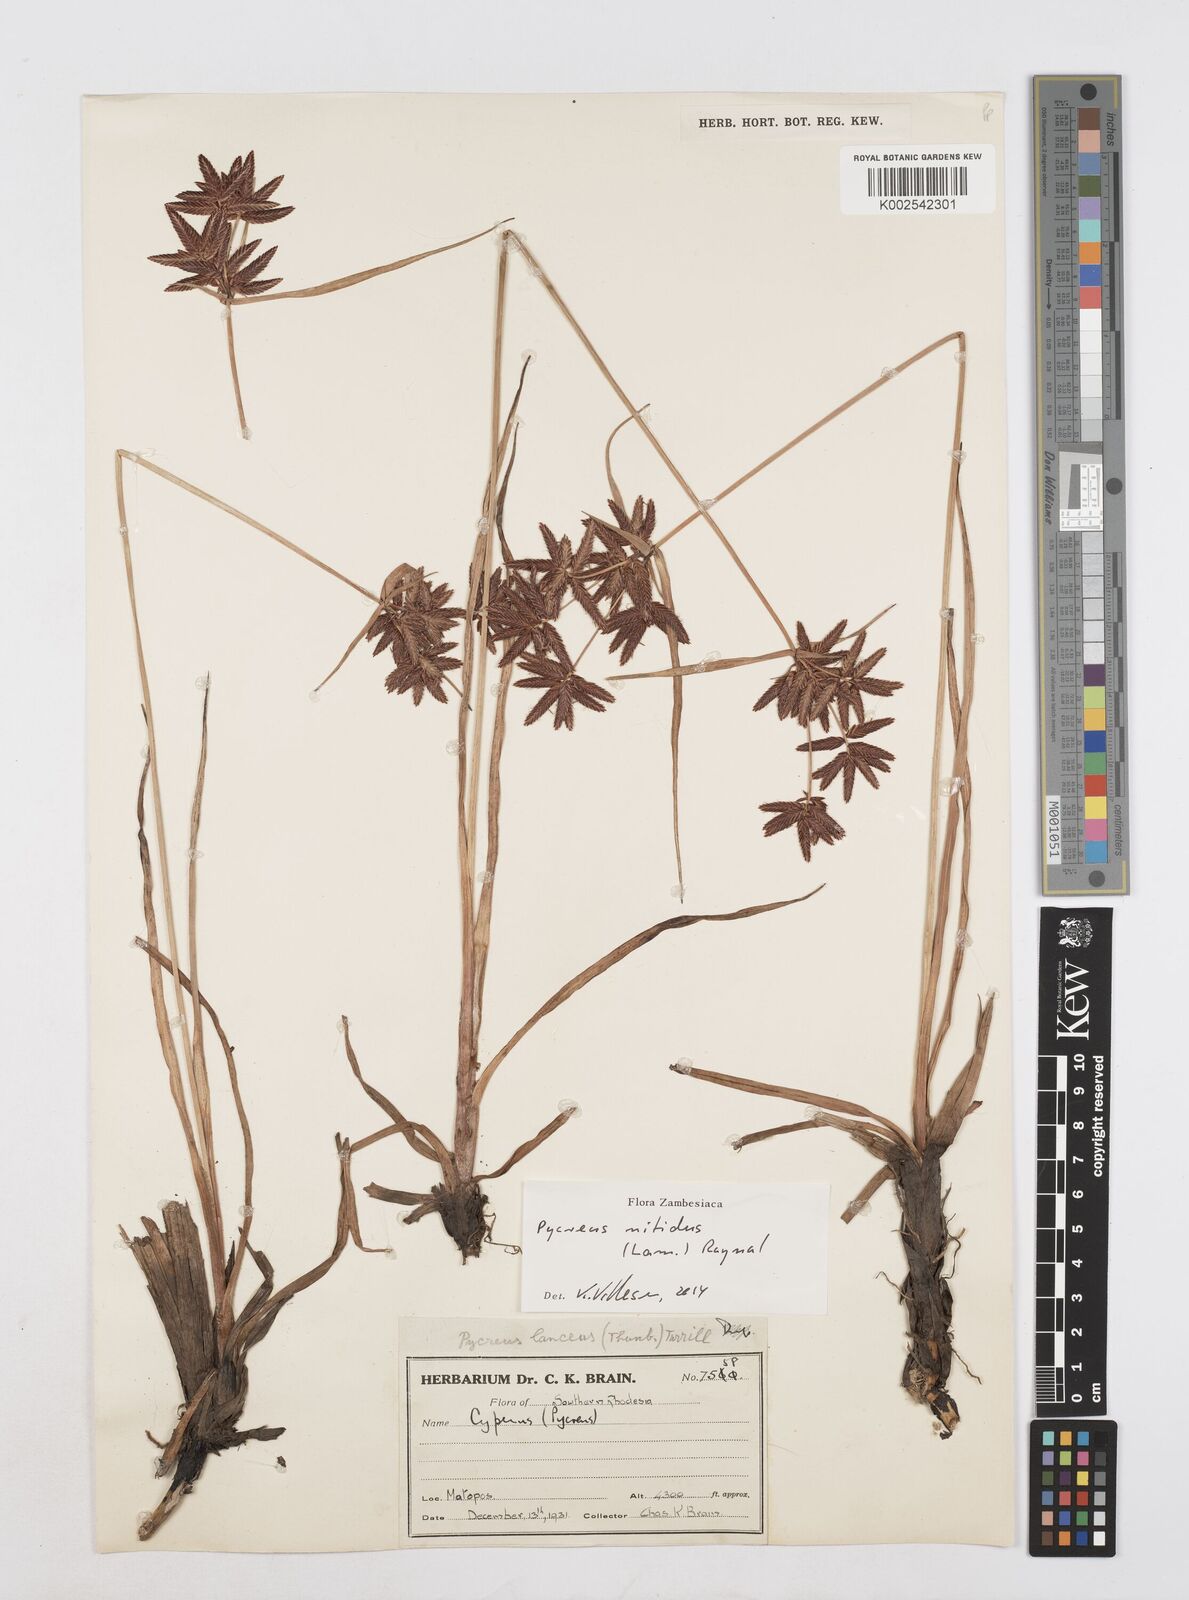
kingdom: Plantae
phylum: Tracheophyta
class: Liliopsida
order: Poales
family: Cyperaceae
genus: Cyperus
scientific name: Cyperus nitidus
